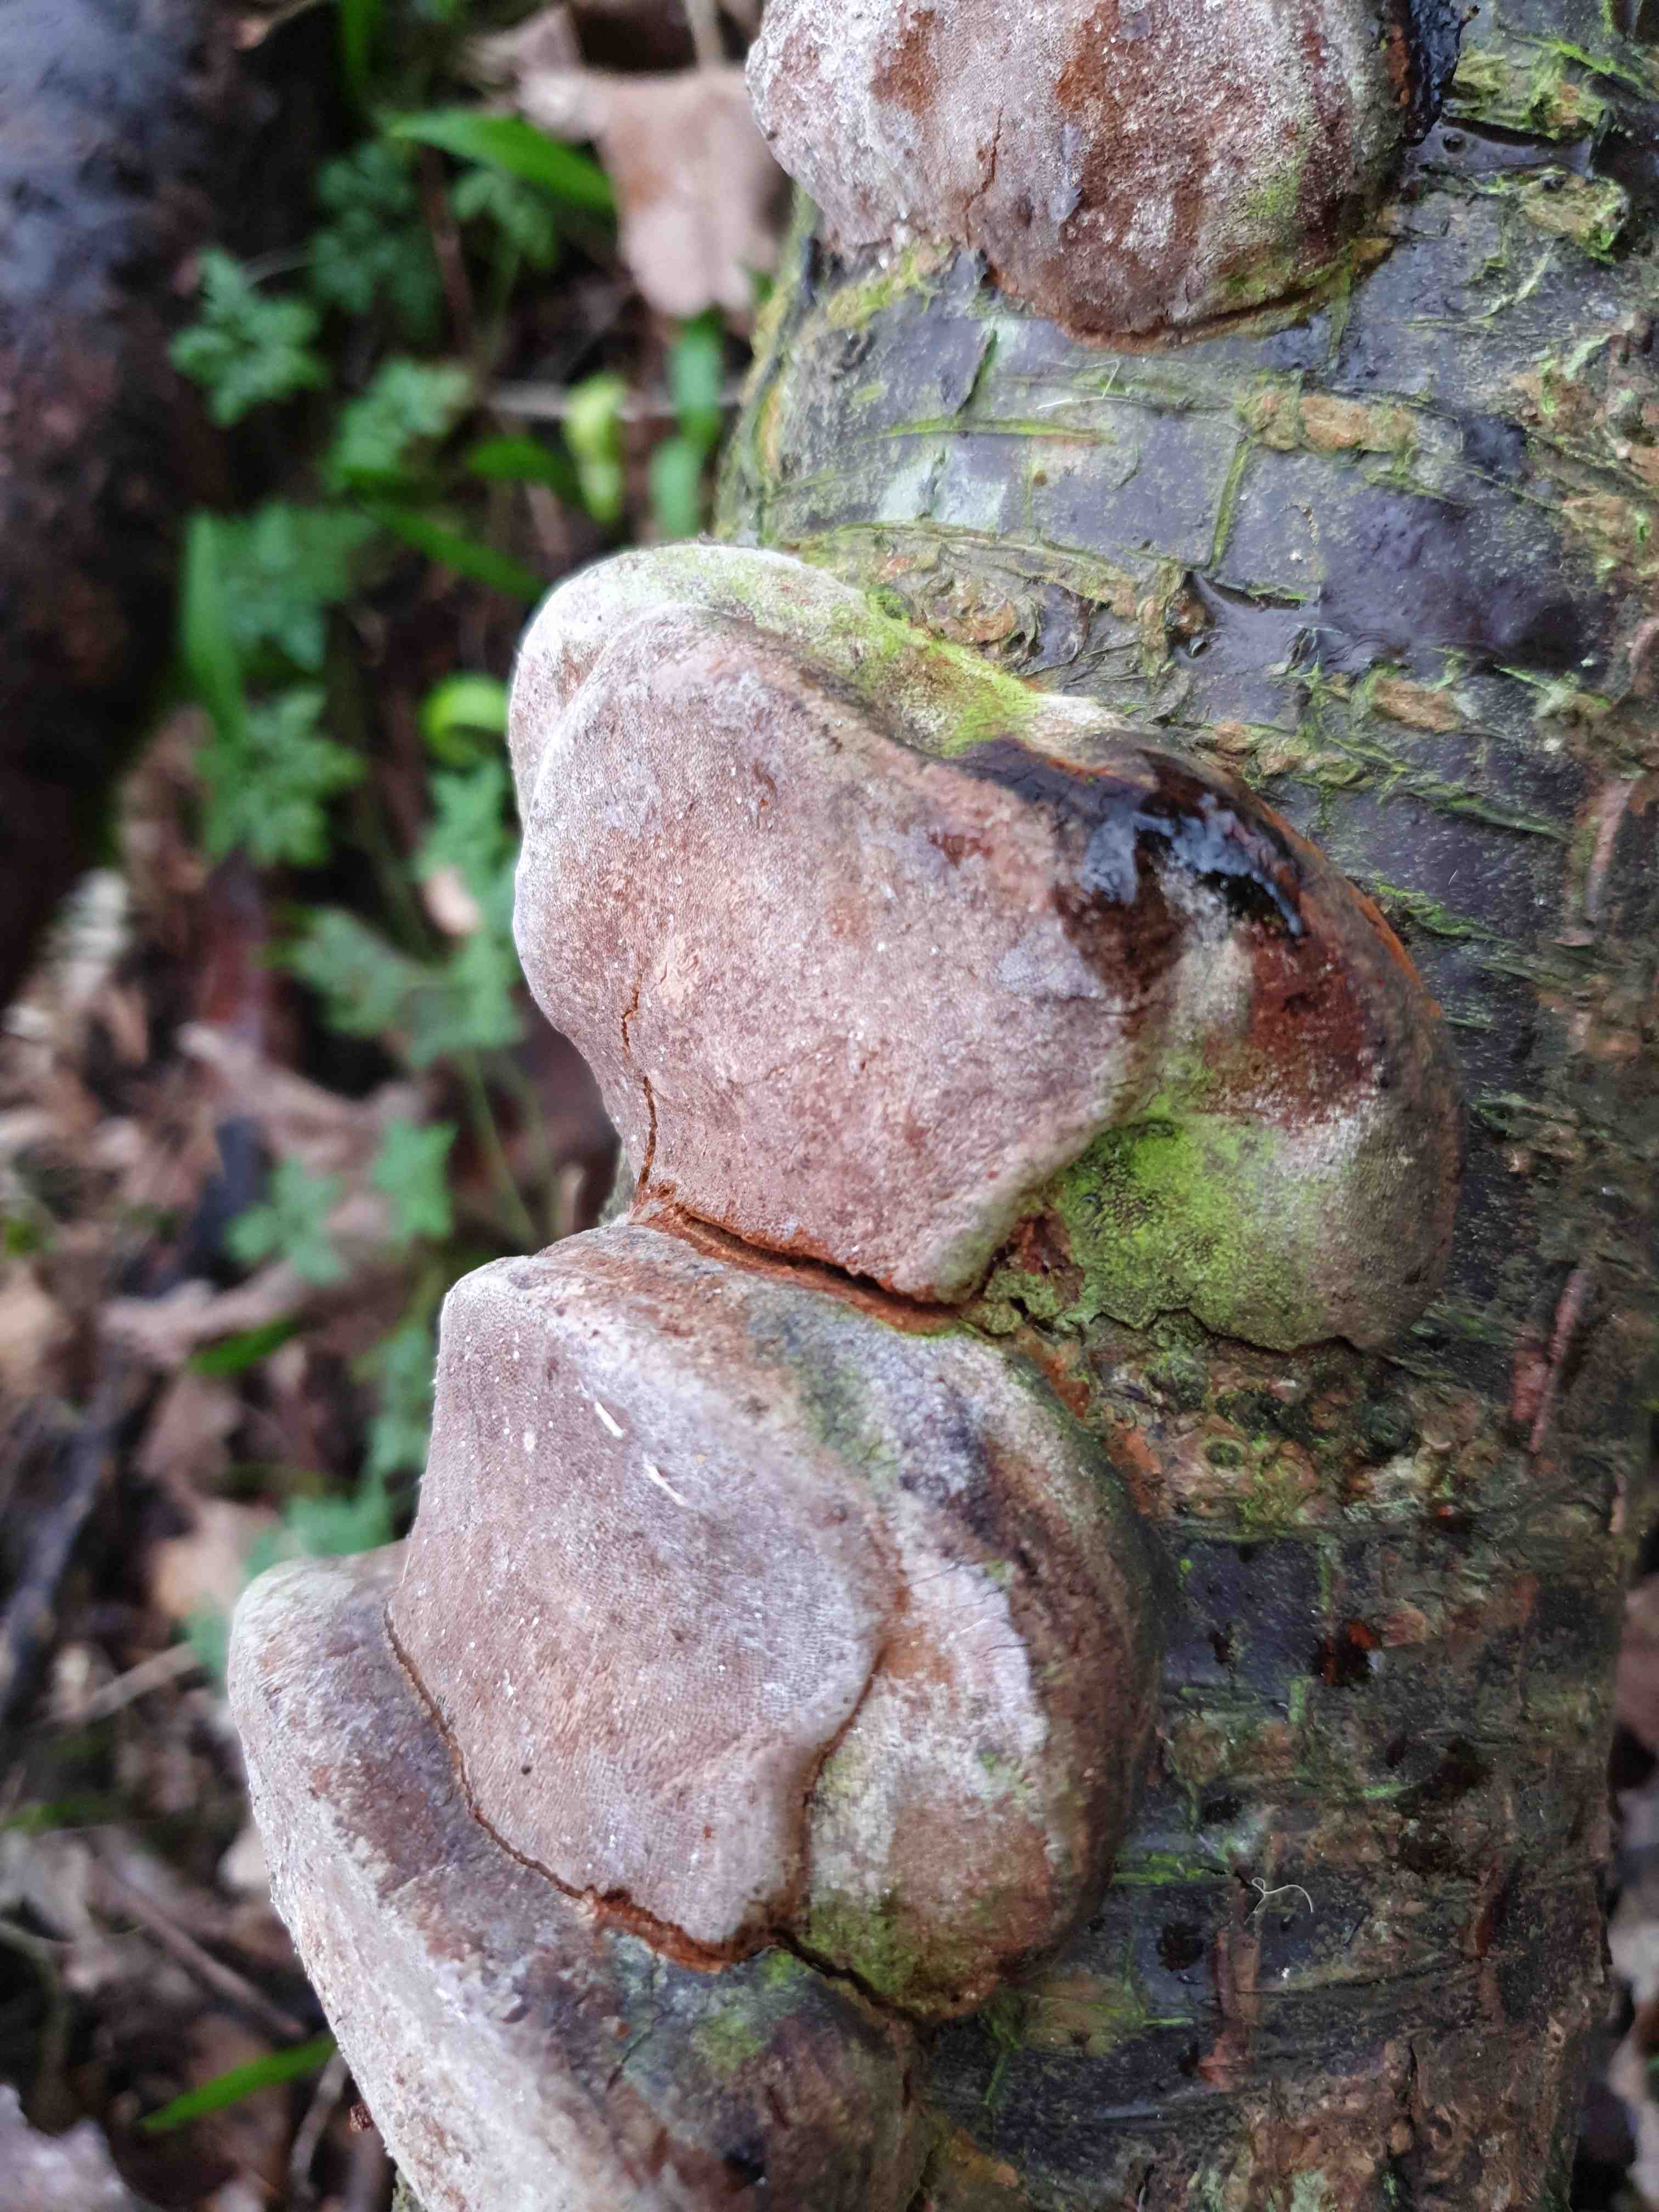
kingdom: Fungi
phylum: Basidiomycota
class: Agaricomycetes
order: Hymenochaetales
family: Hymenochaetaceae
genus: Phellinus
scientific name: Phellinus pomaceus
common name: blomme-ildporesvamp
